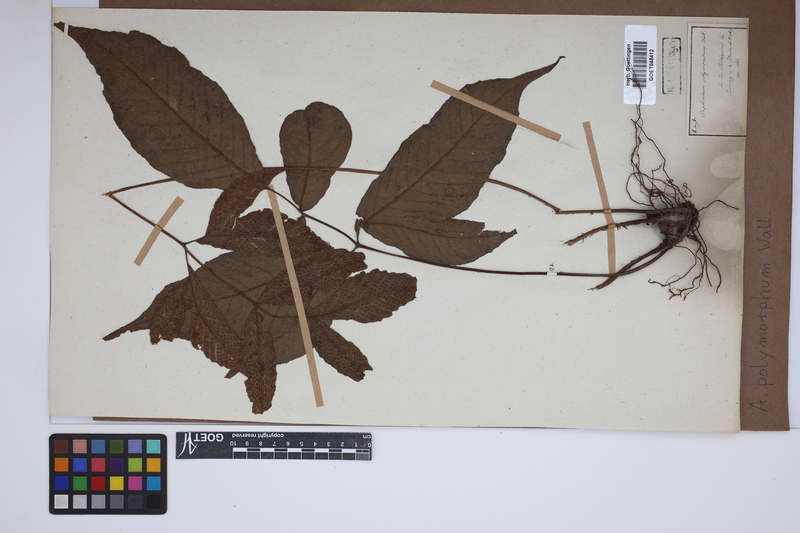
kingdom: Plantae
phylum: Tracheophyta
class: Polypodiopsida
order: Polypodiales
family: Tectariaceae
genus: Tectaria
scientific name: Tectaria polymorpha
